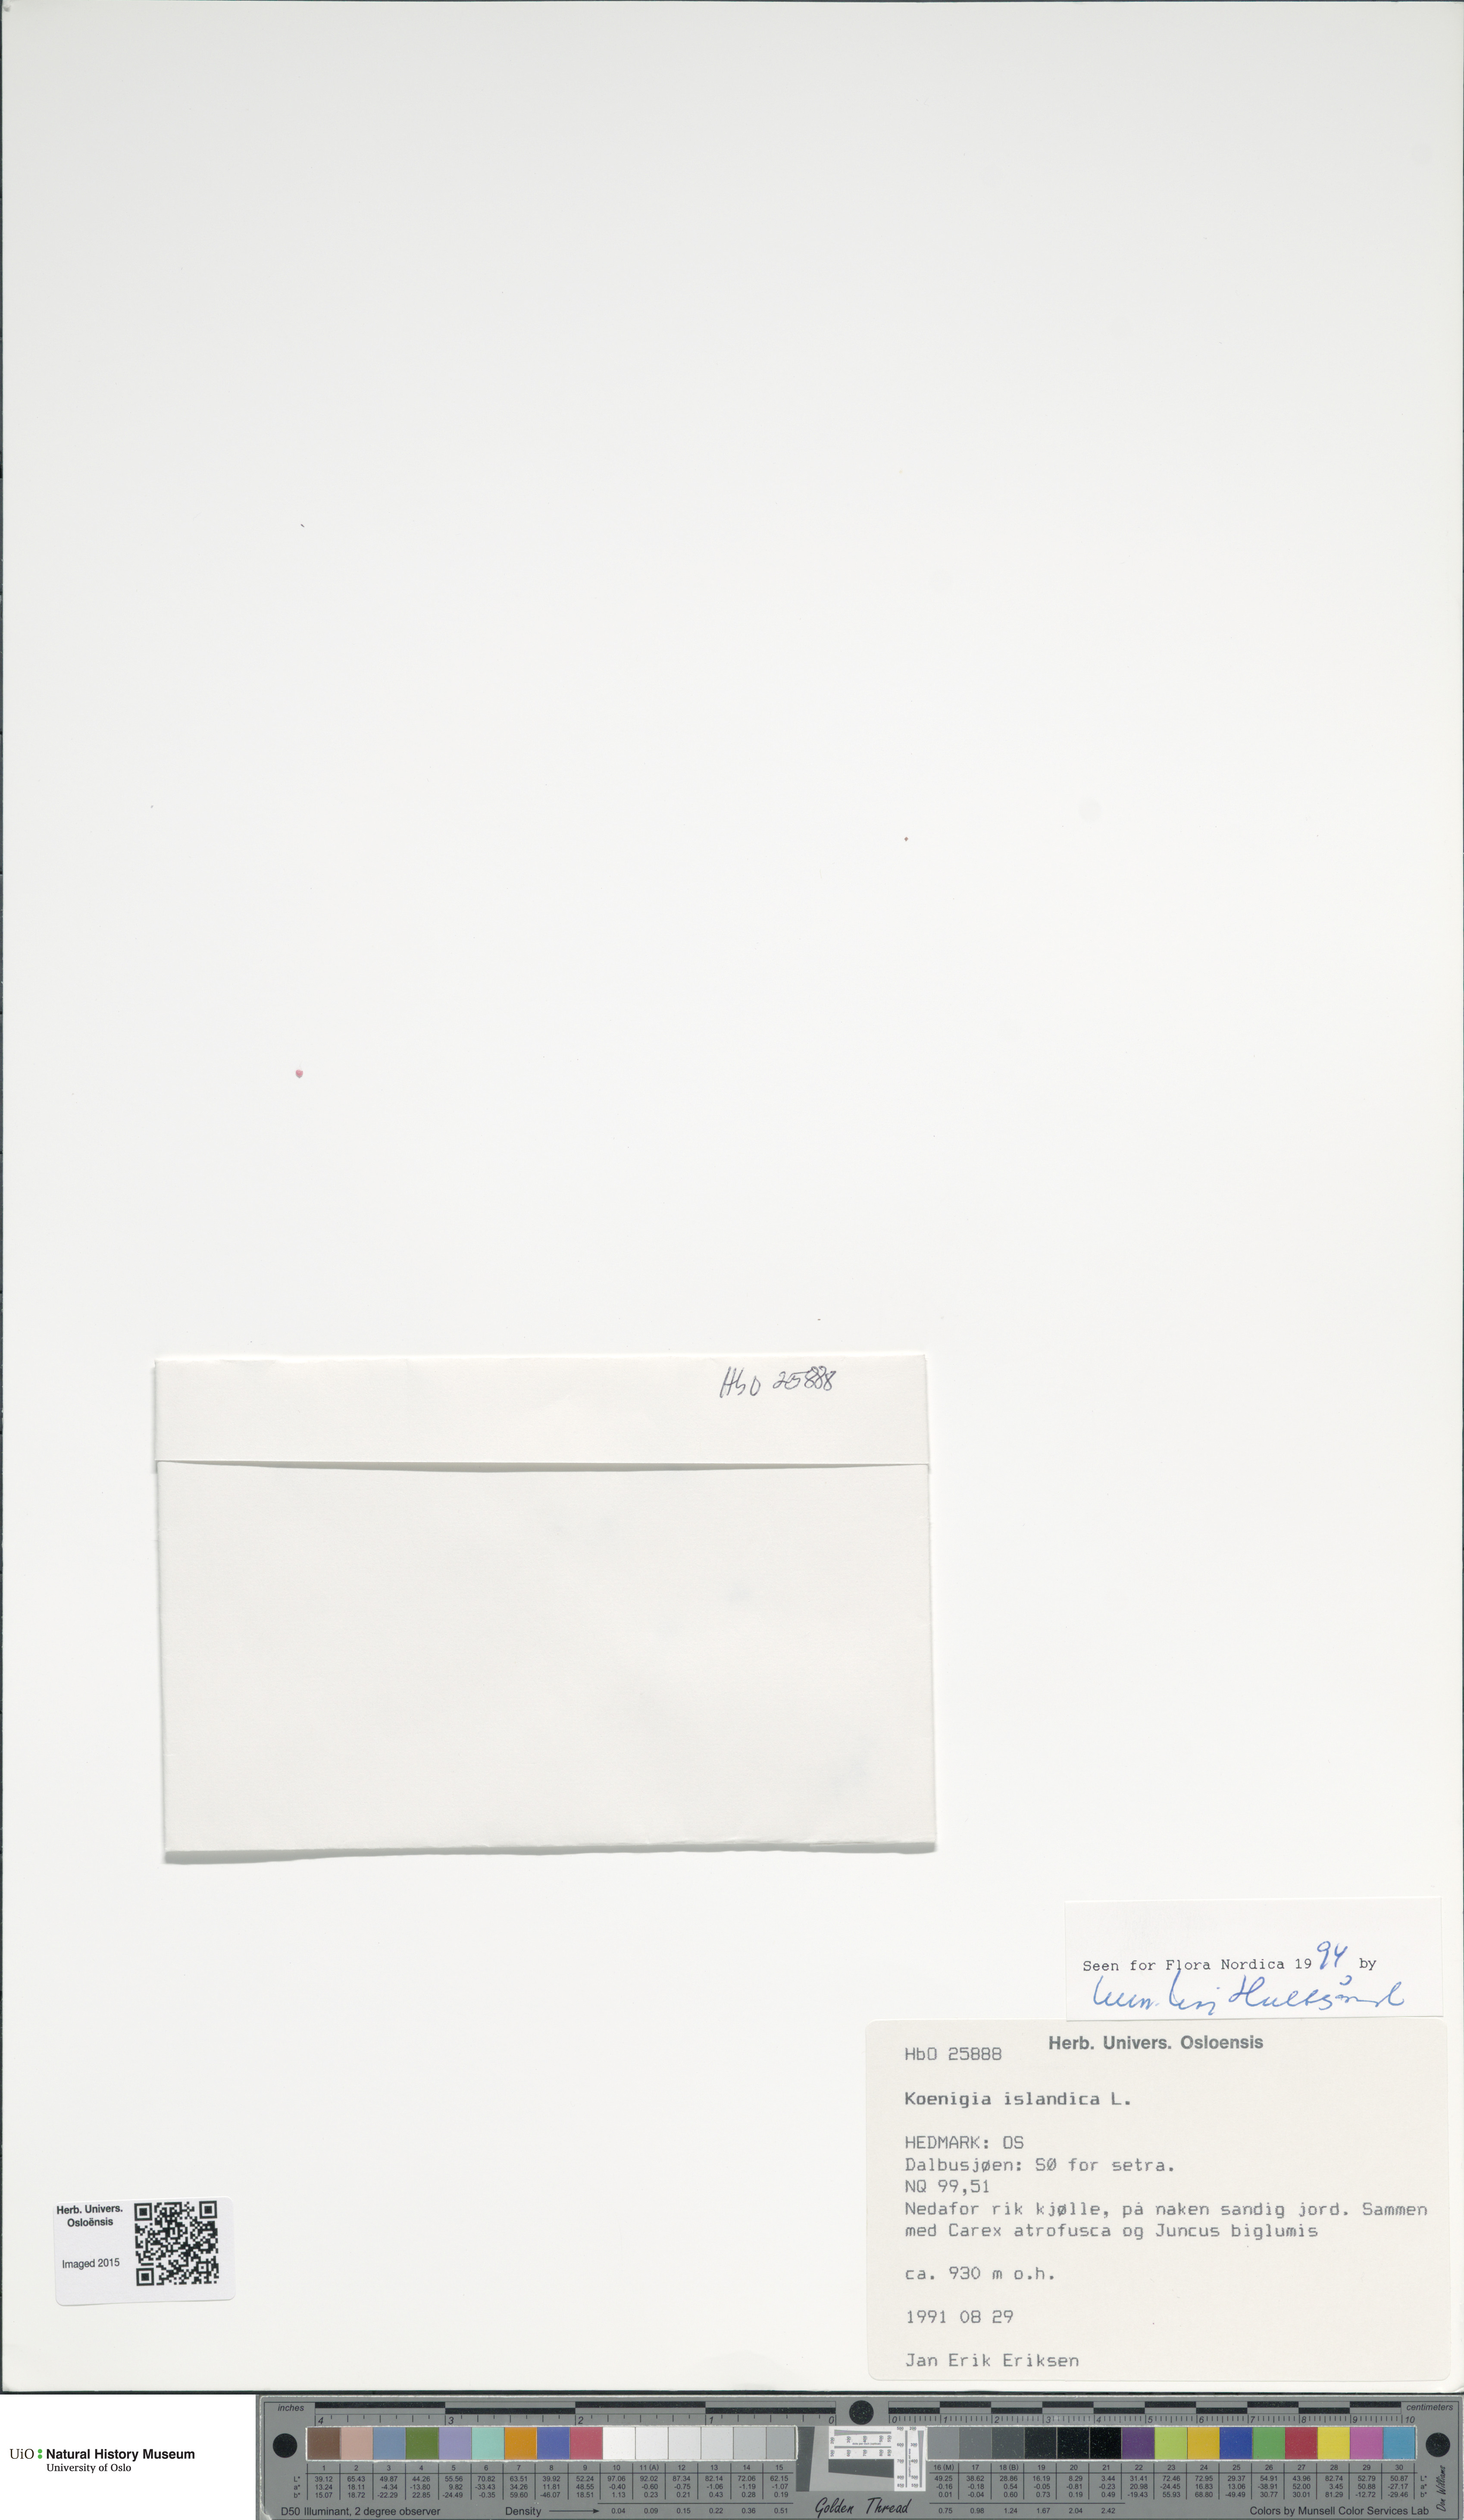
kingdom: Plantae
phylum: Tracheophyta
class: Magnoliopsida
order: Caryophyllales
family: Polygonaceae
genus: Koenigia
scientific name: Koenigia islandica
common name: Iceland-purslane
